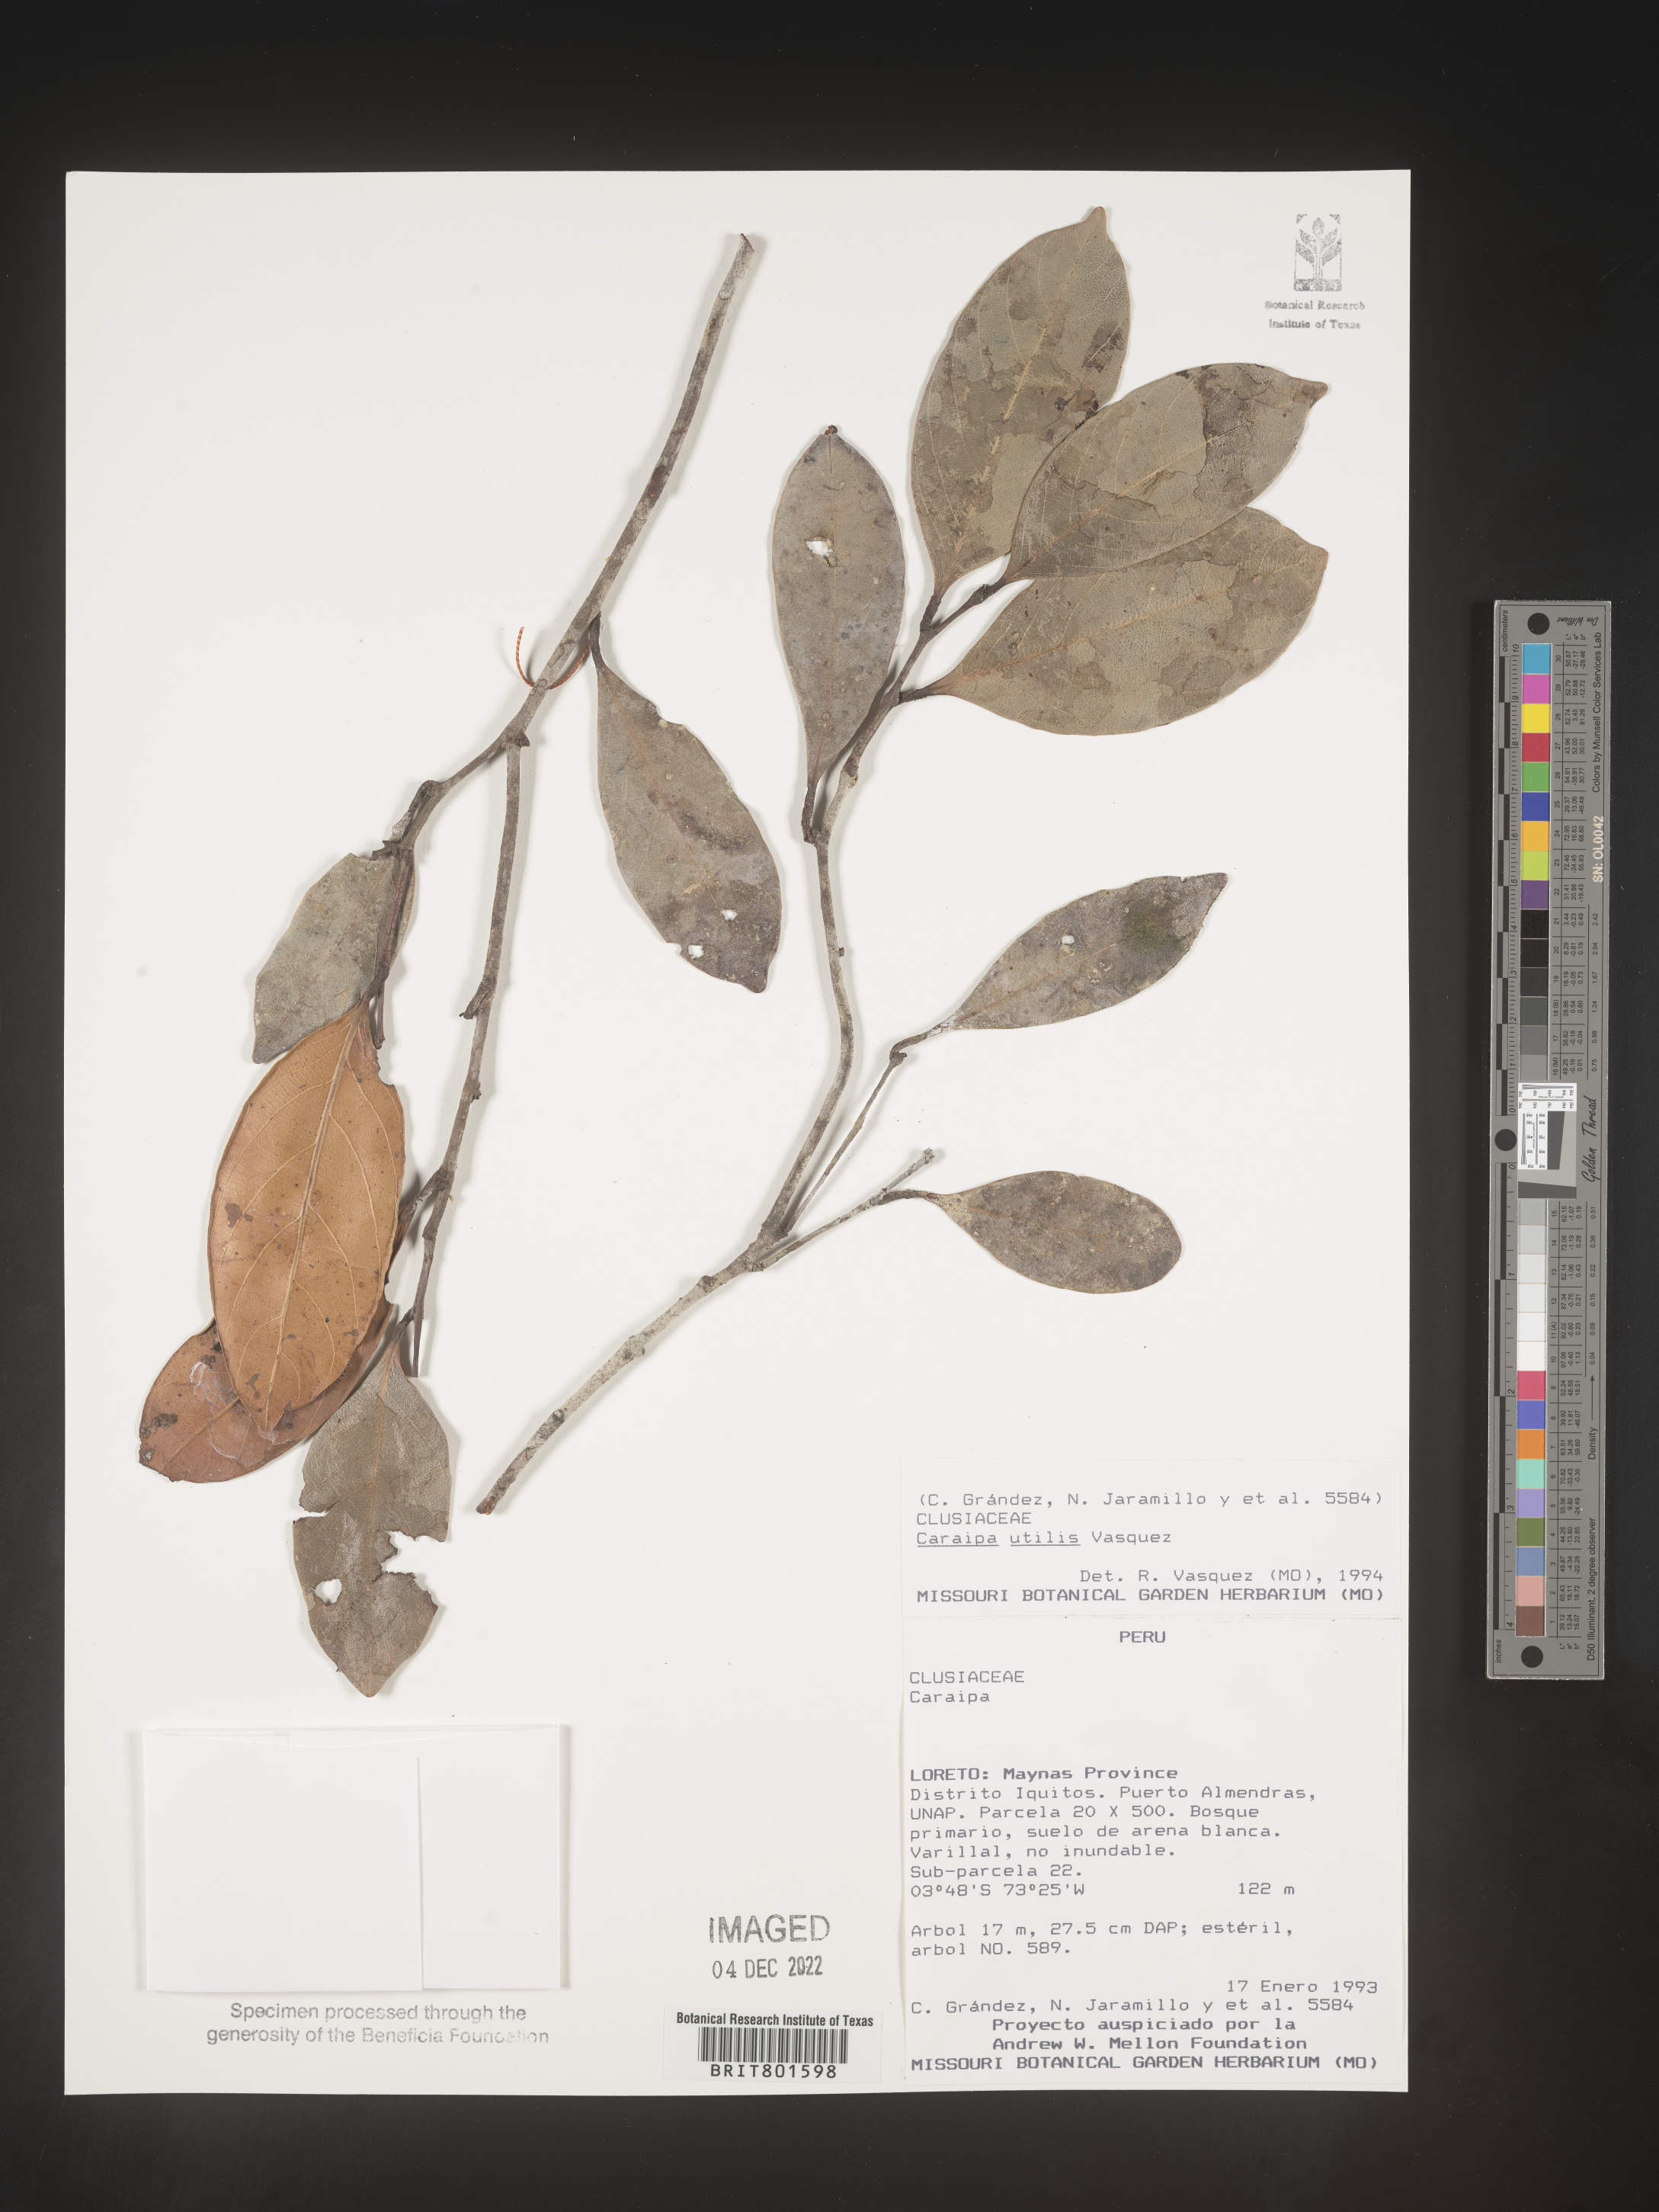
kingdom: Plantae
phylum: Tracheophyta
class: Magnoliopsida
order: Malpighiales
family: Calophyllaceae
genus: Caraipa
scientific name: Caraipa utilis
